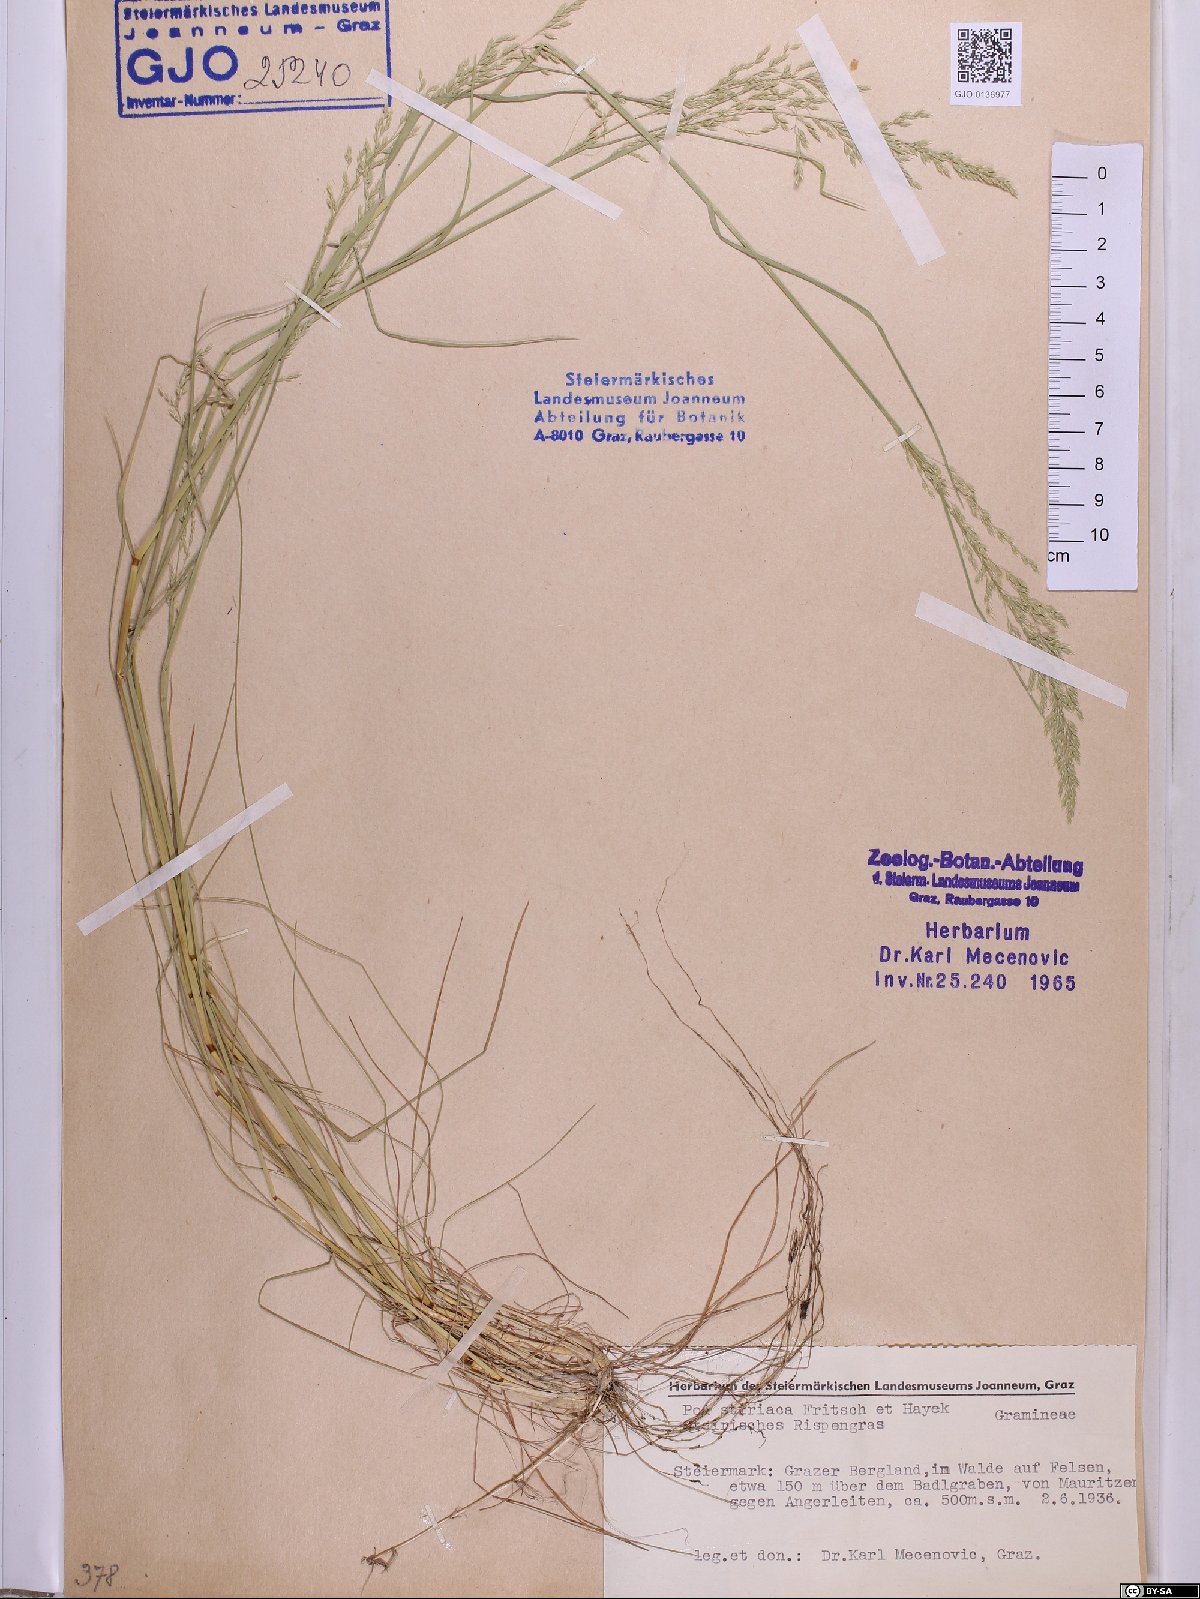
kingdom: Plantae
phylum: Tracheophyta
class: Liliopsida
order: Poales
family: Poaceae
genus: Poa
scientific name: Poa stiriaca
